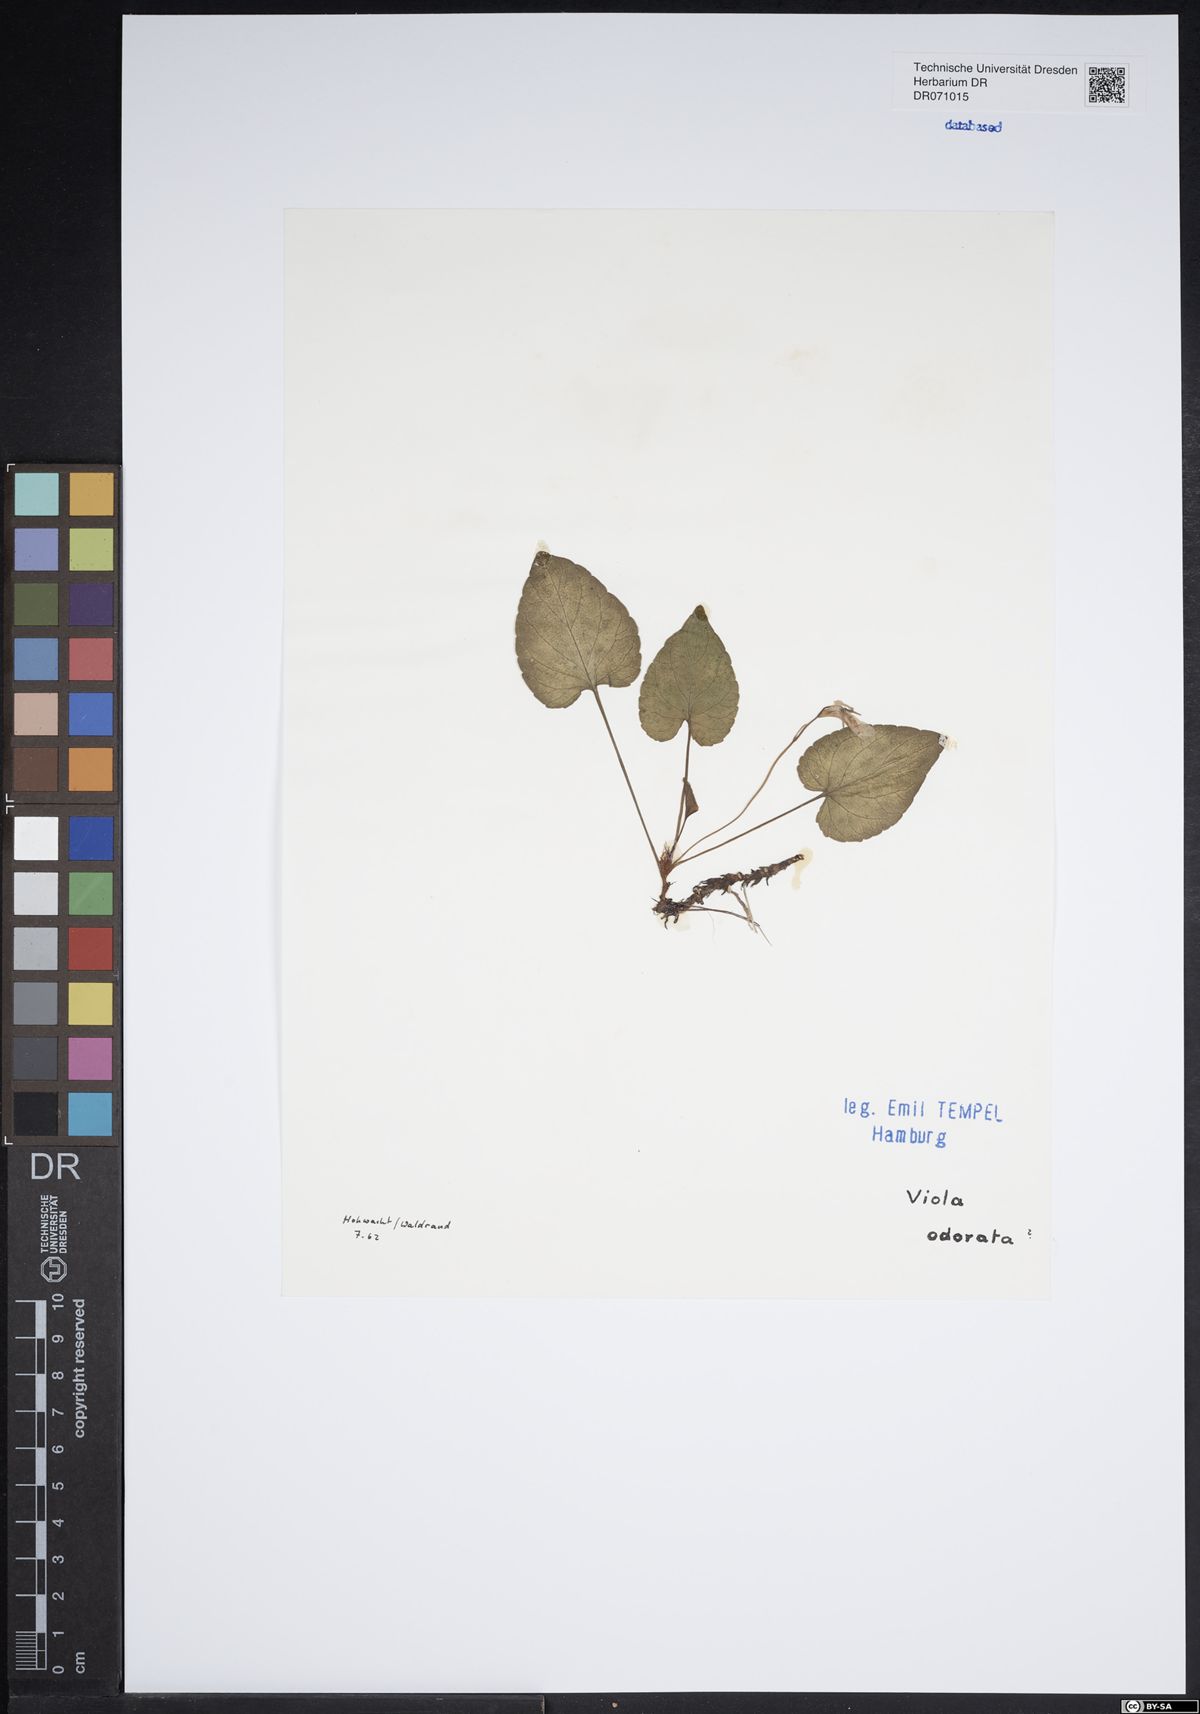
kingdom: Plantae
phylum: Tracheophyta
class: Magnoliopsida
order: Malpighiales
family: Violaceae
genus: Viola
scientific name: Viola odorata
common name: Sweet violet
